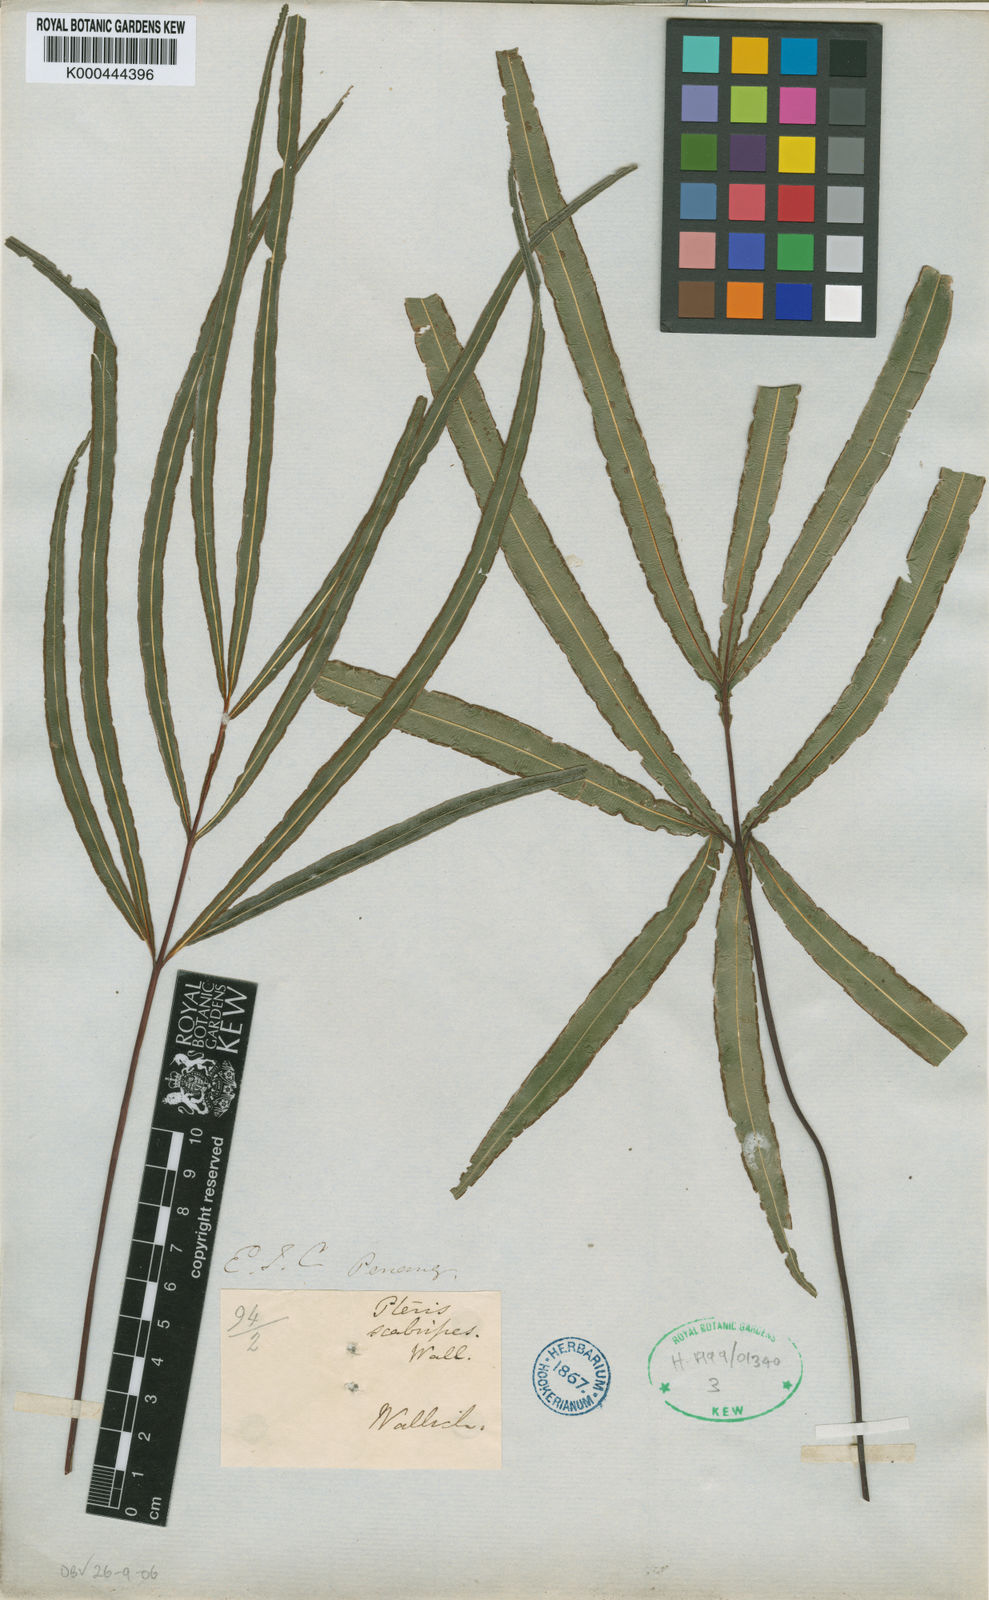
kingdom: Plantae
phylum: Tracheophyta
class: Polypodiopsida
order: Polypodiales
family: Pteridaceae
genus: Pteris
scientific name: Pteris
